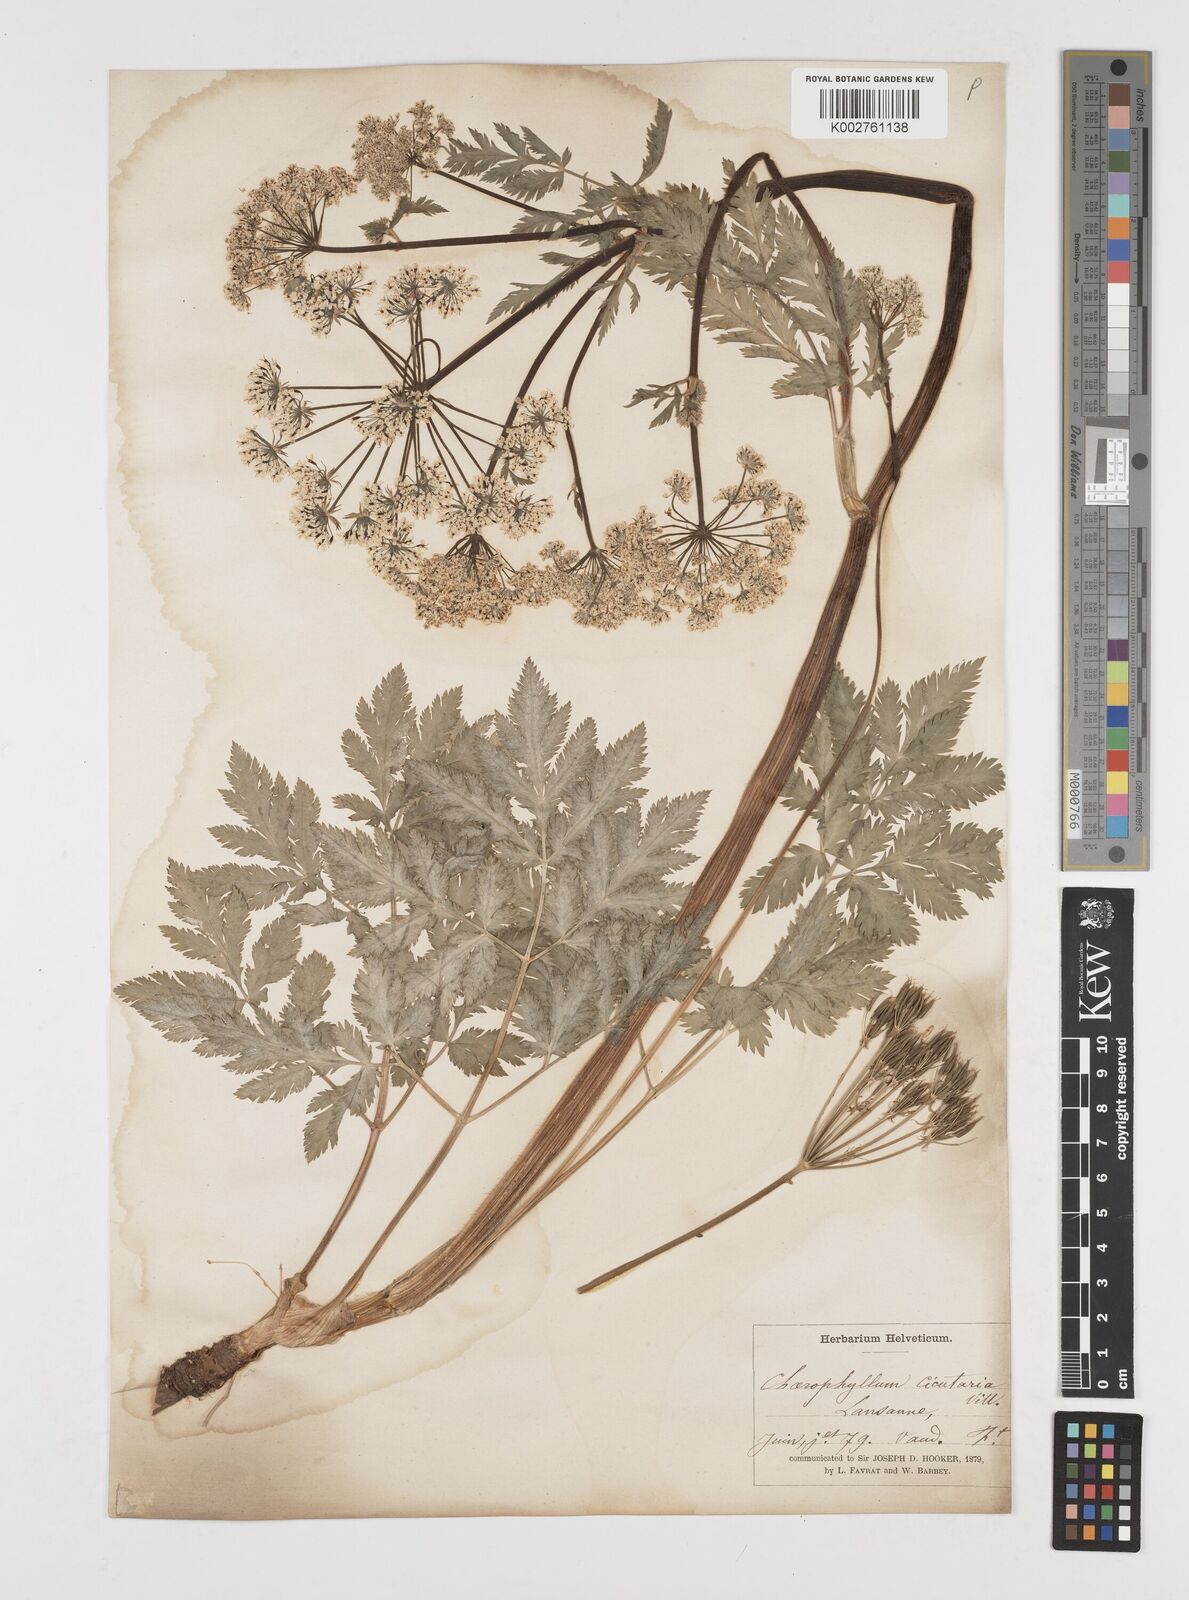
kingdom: Plantae
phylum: Tracheophyta
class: Magnoliopsida
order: Apiales
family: Apiaceae
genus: Chaerophyllum
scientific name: Chaerophyllum hirsutum
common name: Hairy chervil
